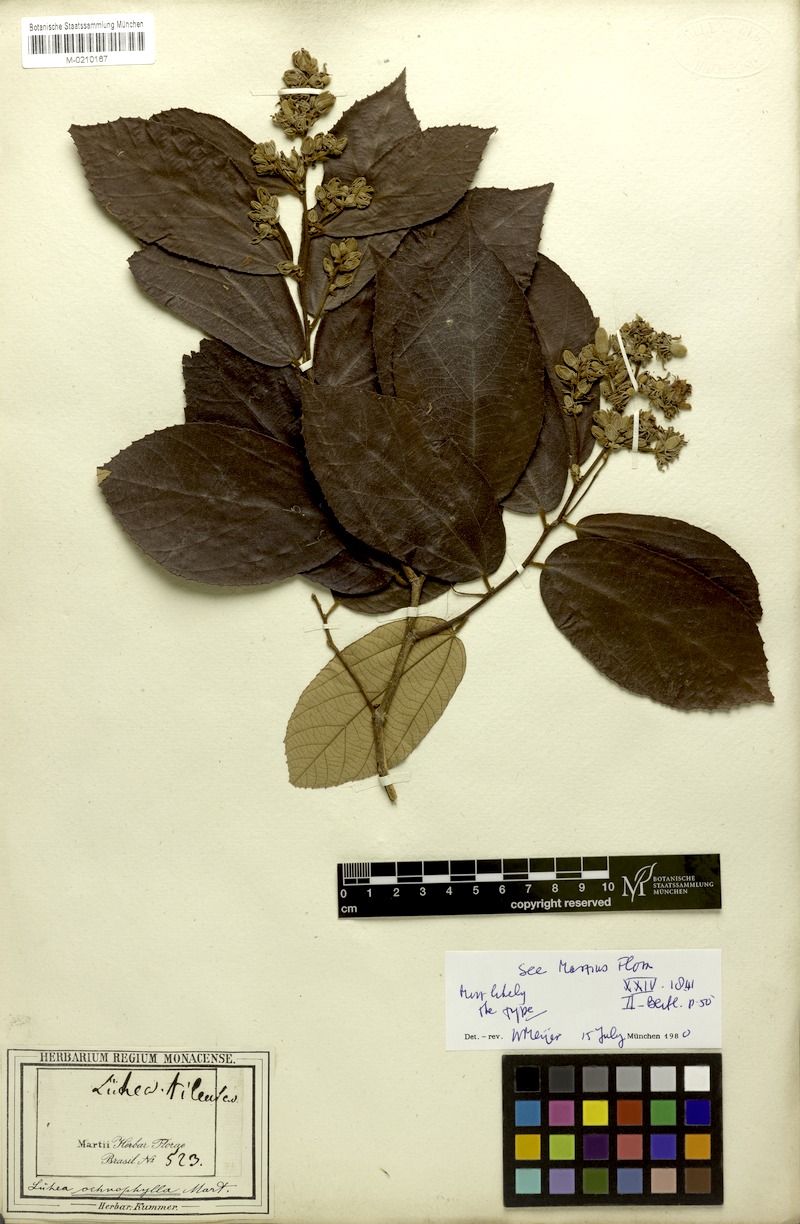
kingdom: Plantae
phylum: Tracheophyta
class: Magnoliopsida
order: Malvales
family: Malvaceae
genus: Luehea
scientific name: Luehea ochrophylla
